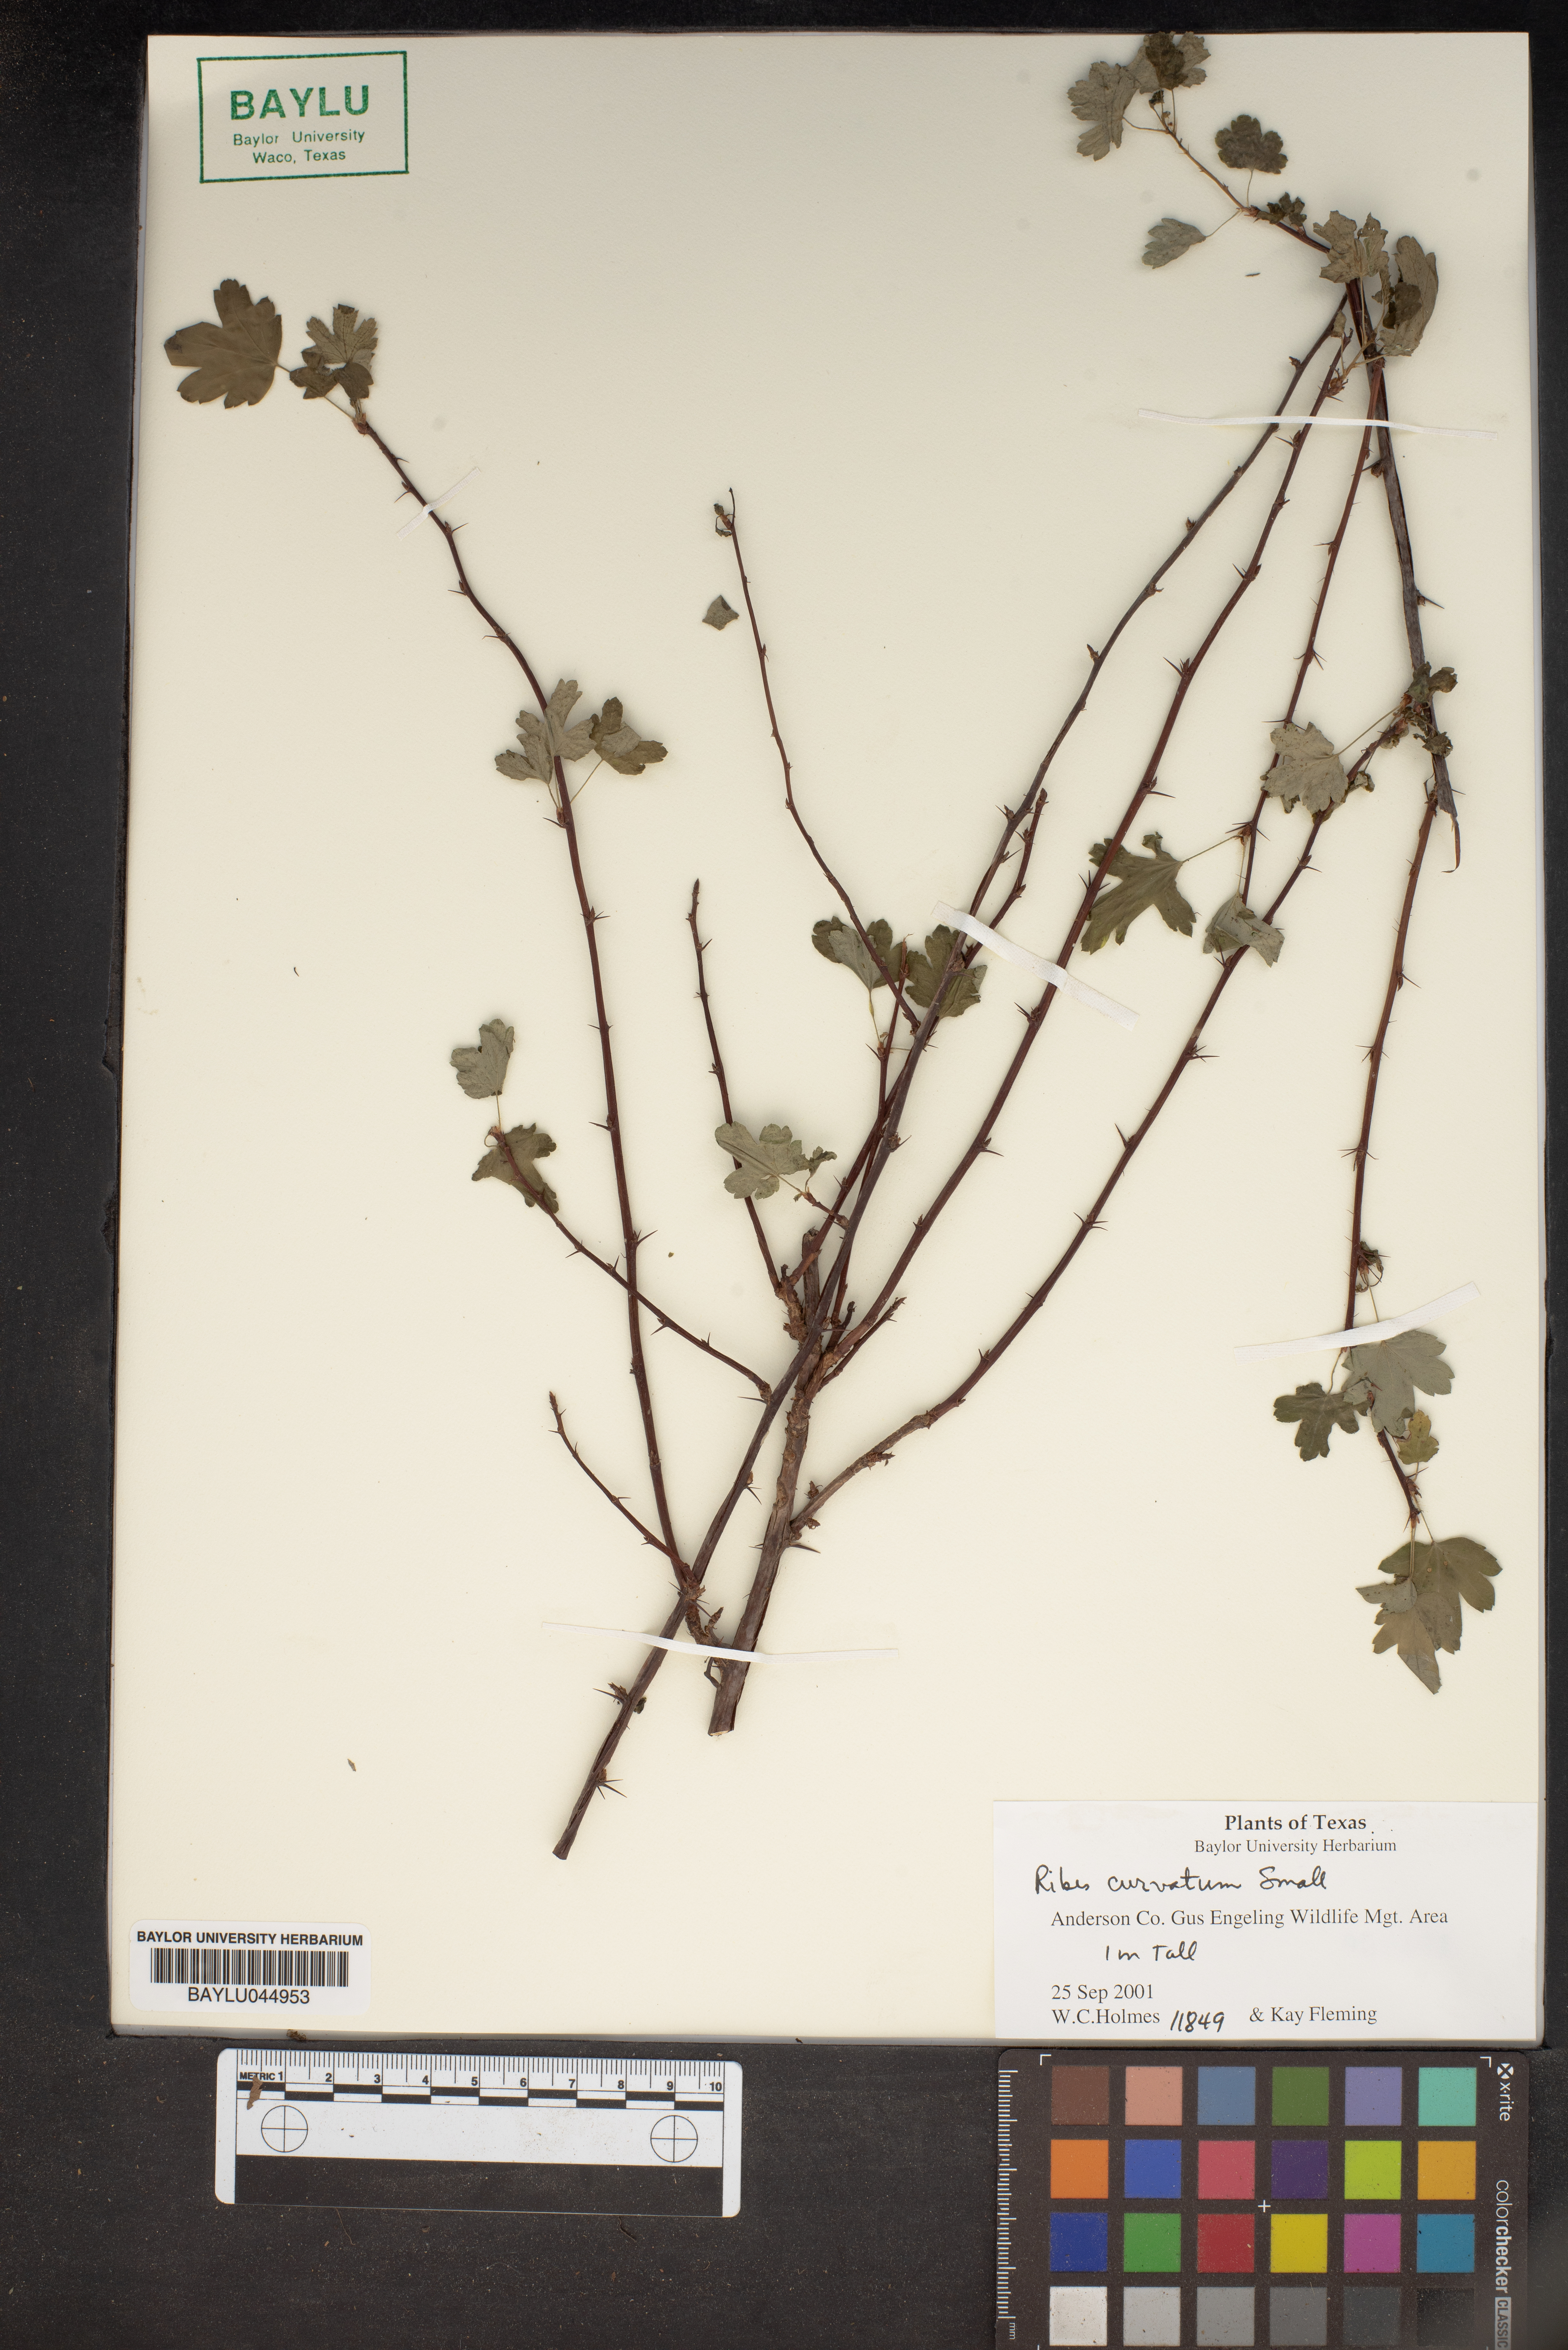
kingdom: Plantae
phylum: Tracheophyta
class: Magnoliopsida
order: Saxifragales
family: Grossulariaceae
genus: Ribes
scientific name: Ribes curvatum
